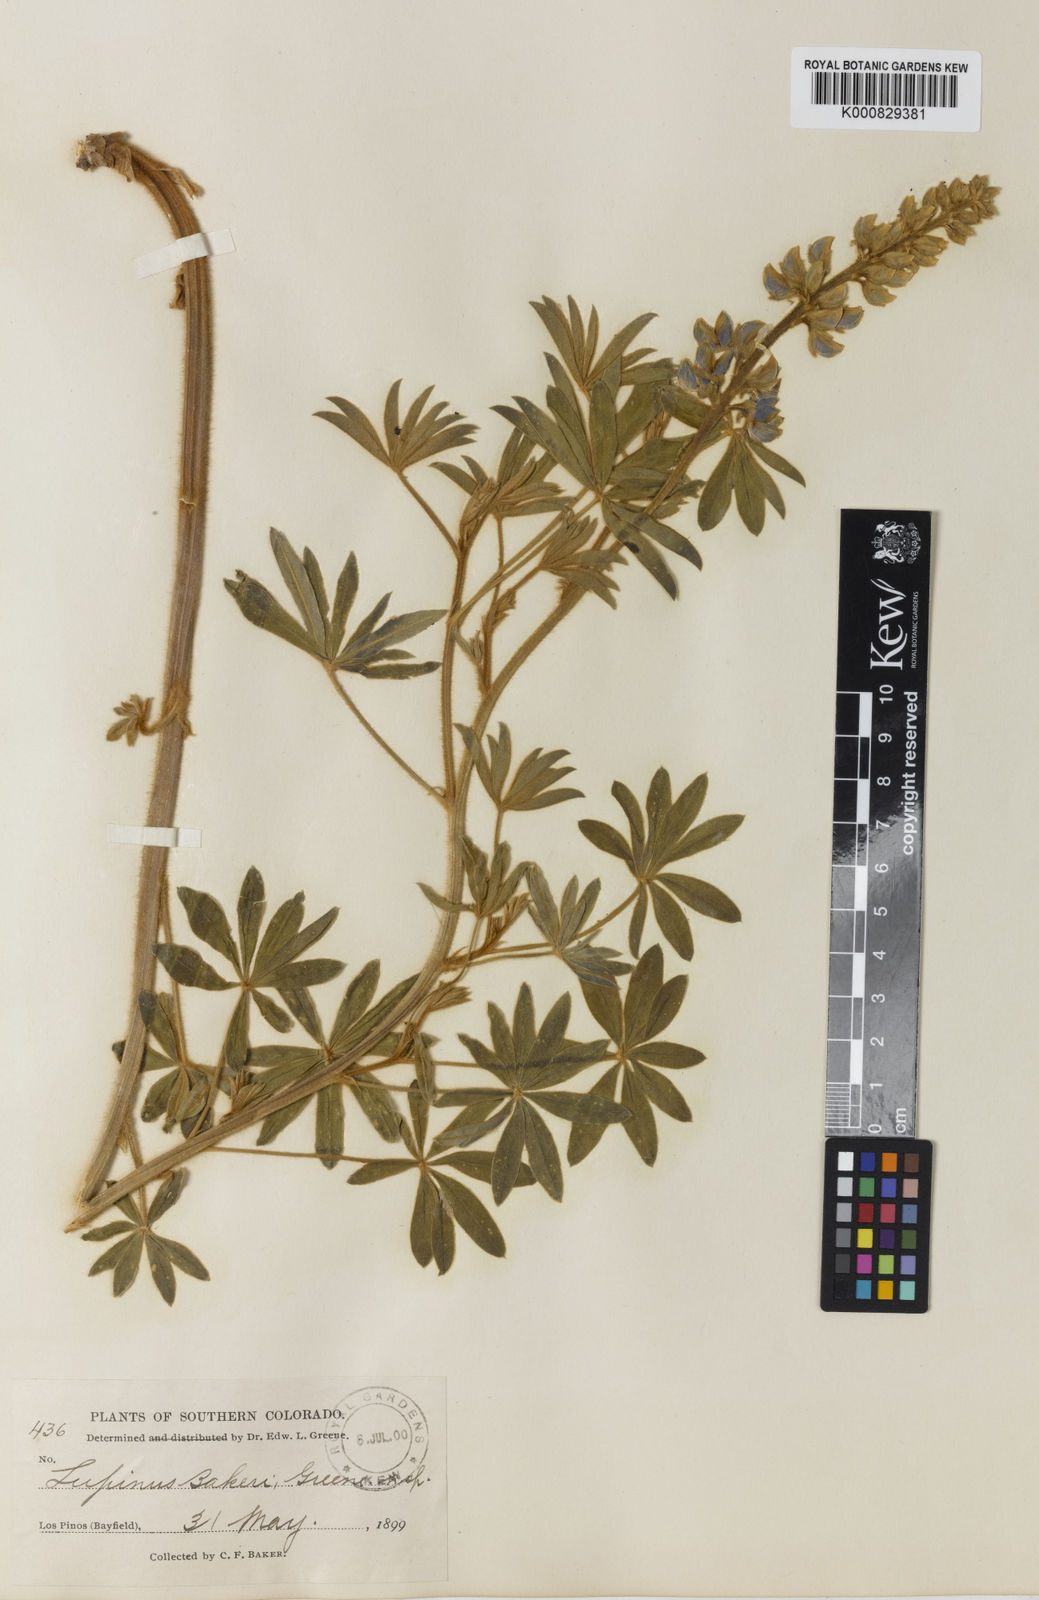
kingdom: Plantae
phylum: Tracheophyta
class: Magnoliopsida
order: Fabales
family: Fabaceae
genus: Lupinus
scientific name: Lupinus sericeus
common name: Silky lupine
